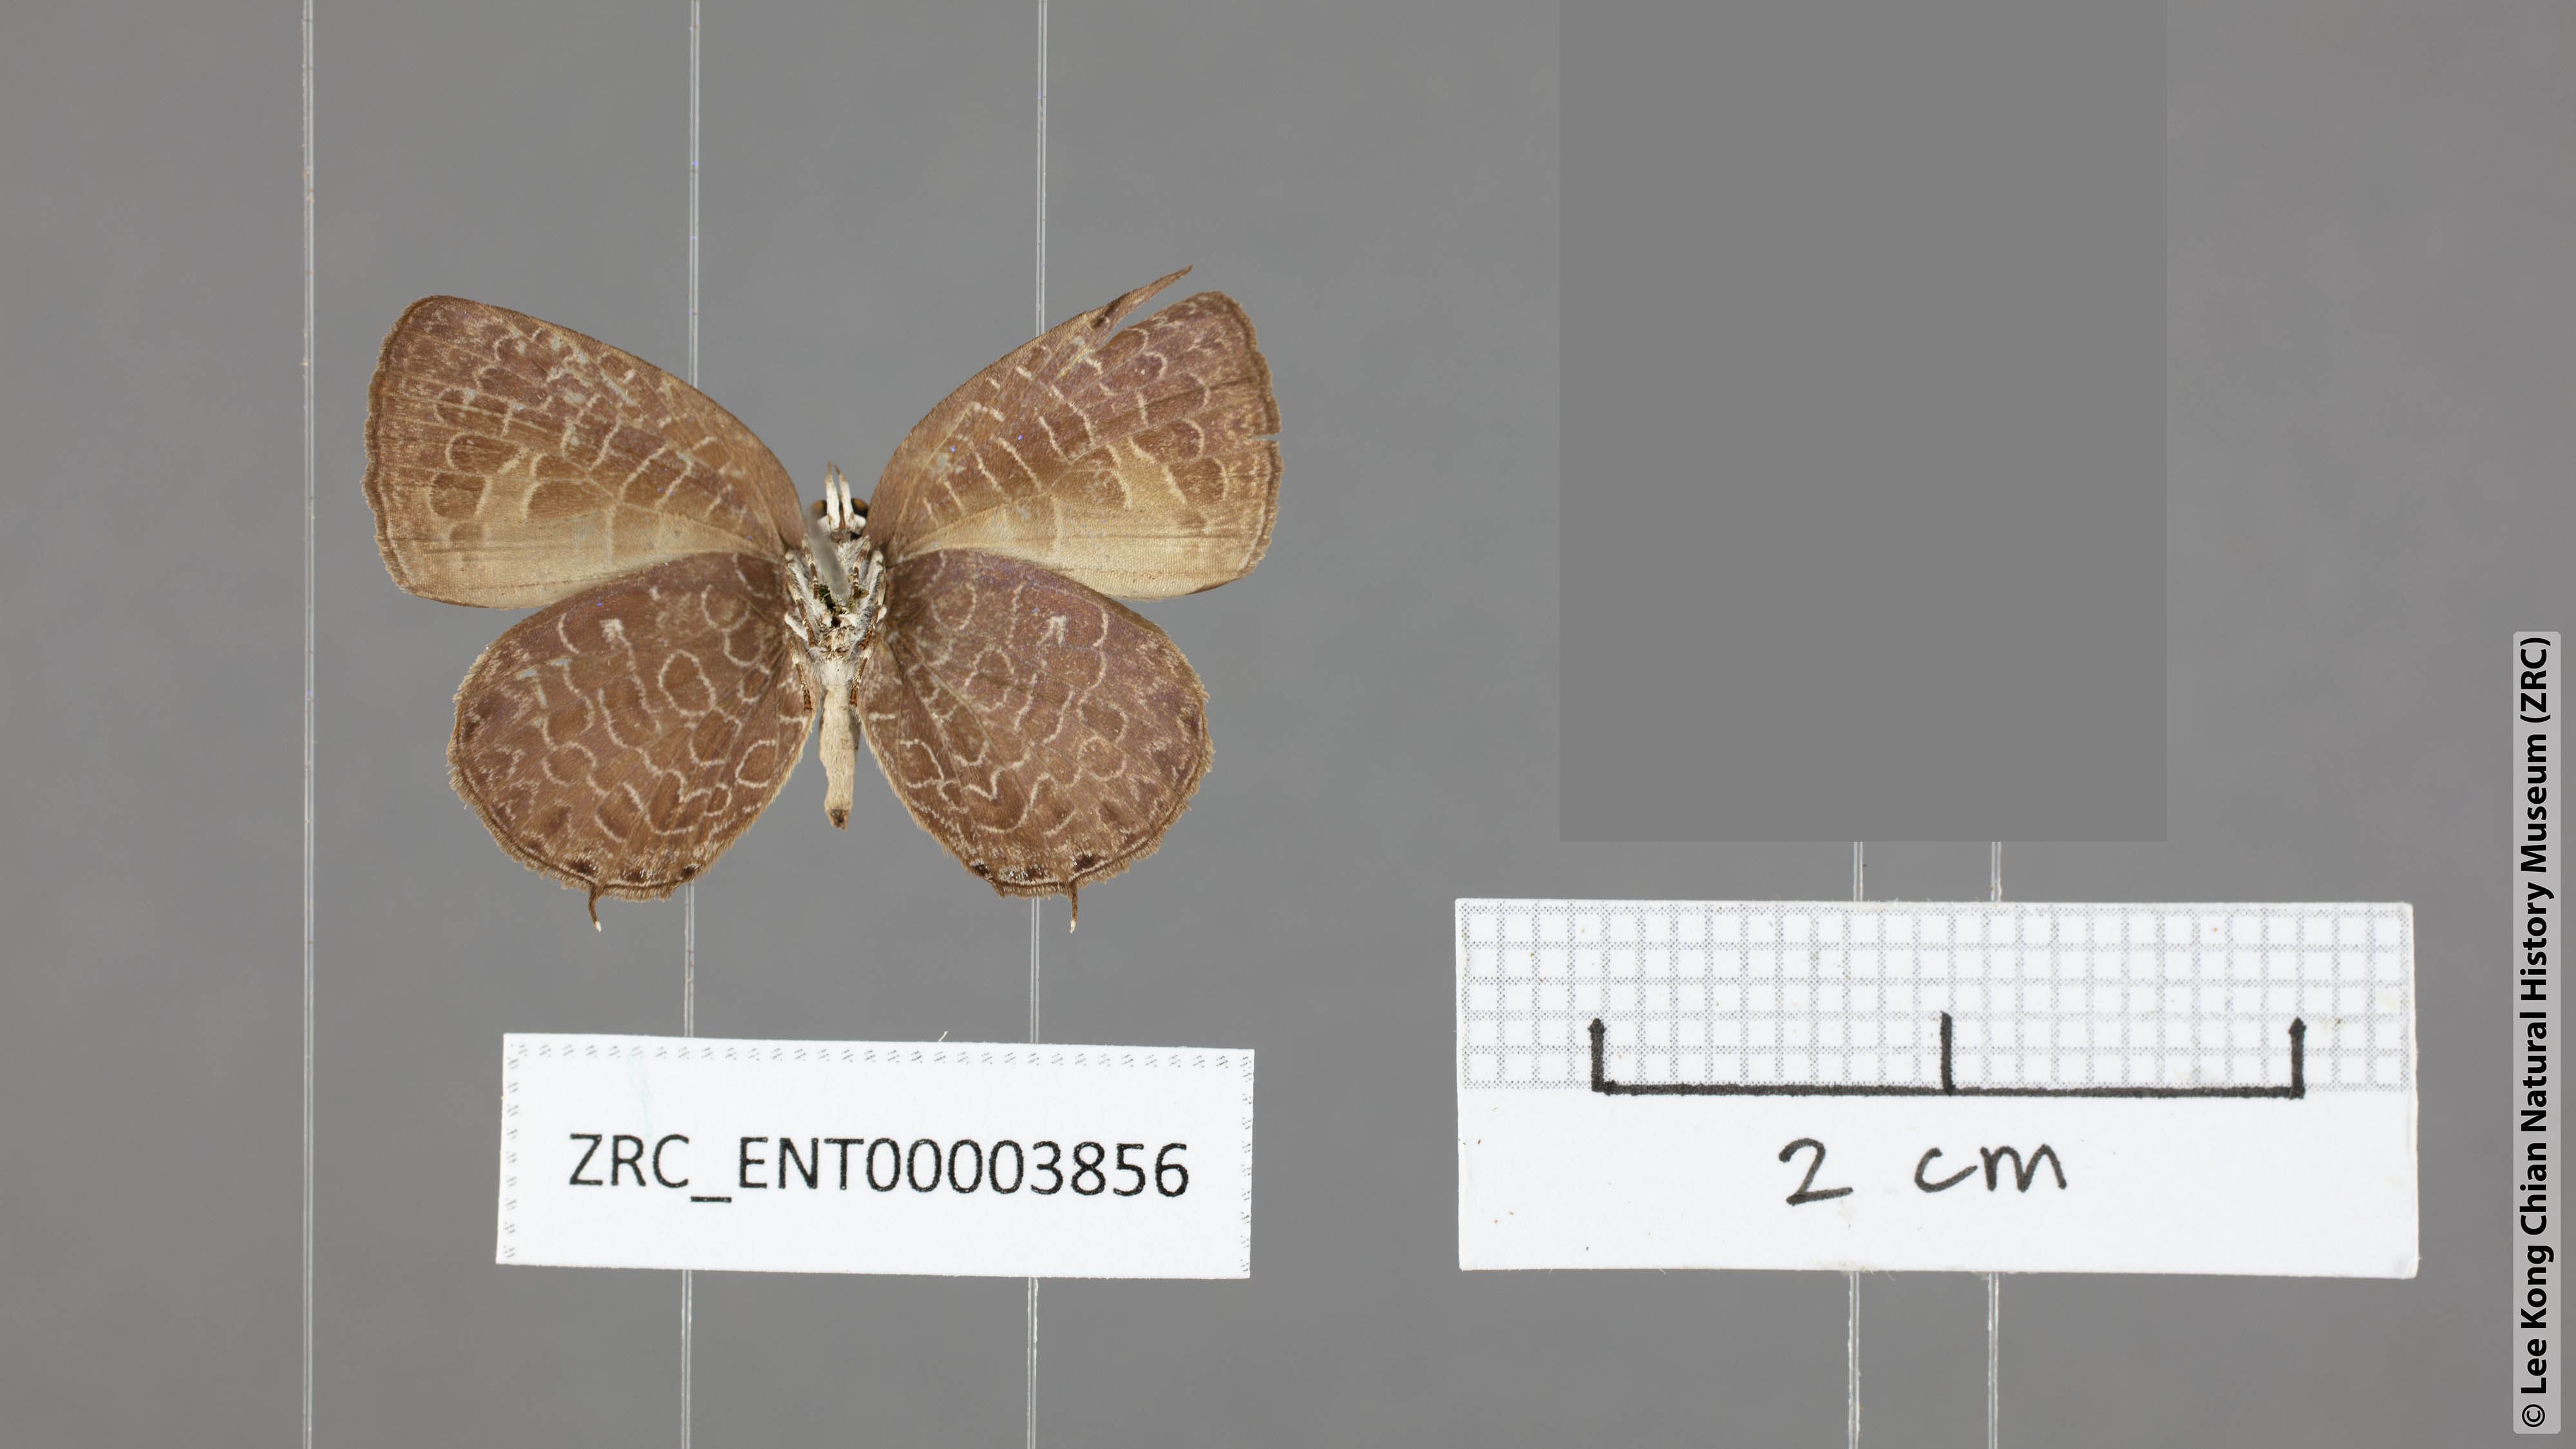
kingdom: Animalia
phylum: Arthropoda
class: Insecta
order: Lepidoptera
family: Lycaenidae
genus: Arhopala
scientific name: Arhopala ariel
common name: Chocolate oakblue
